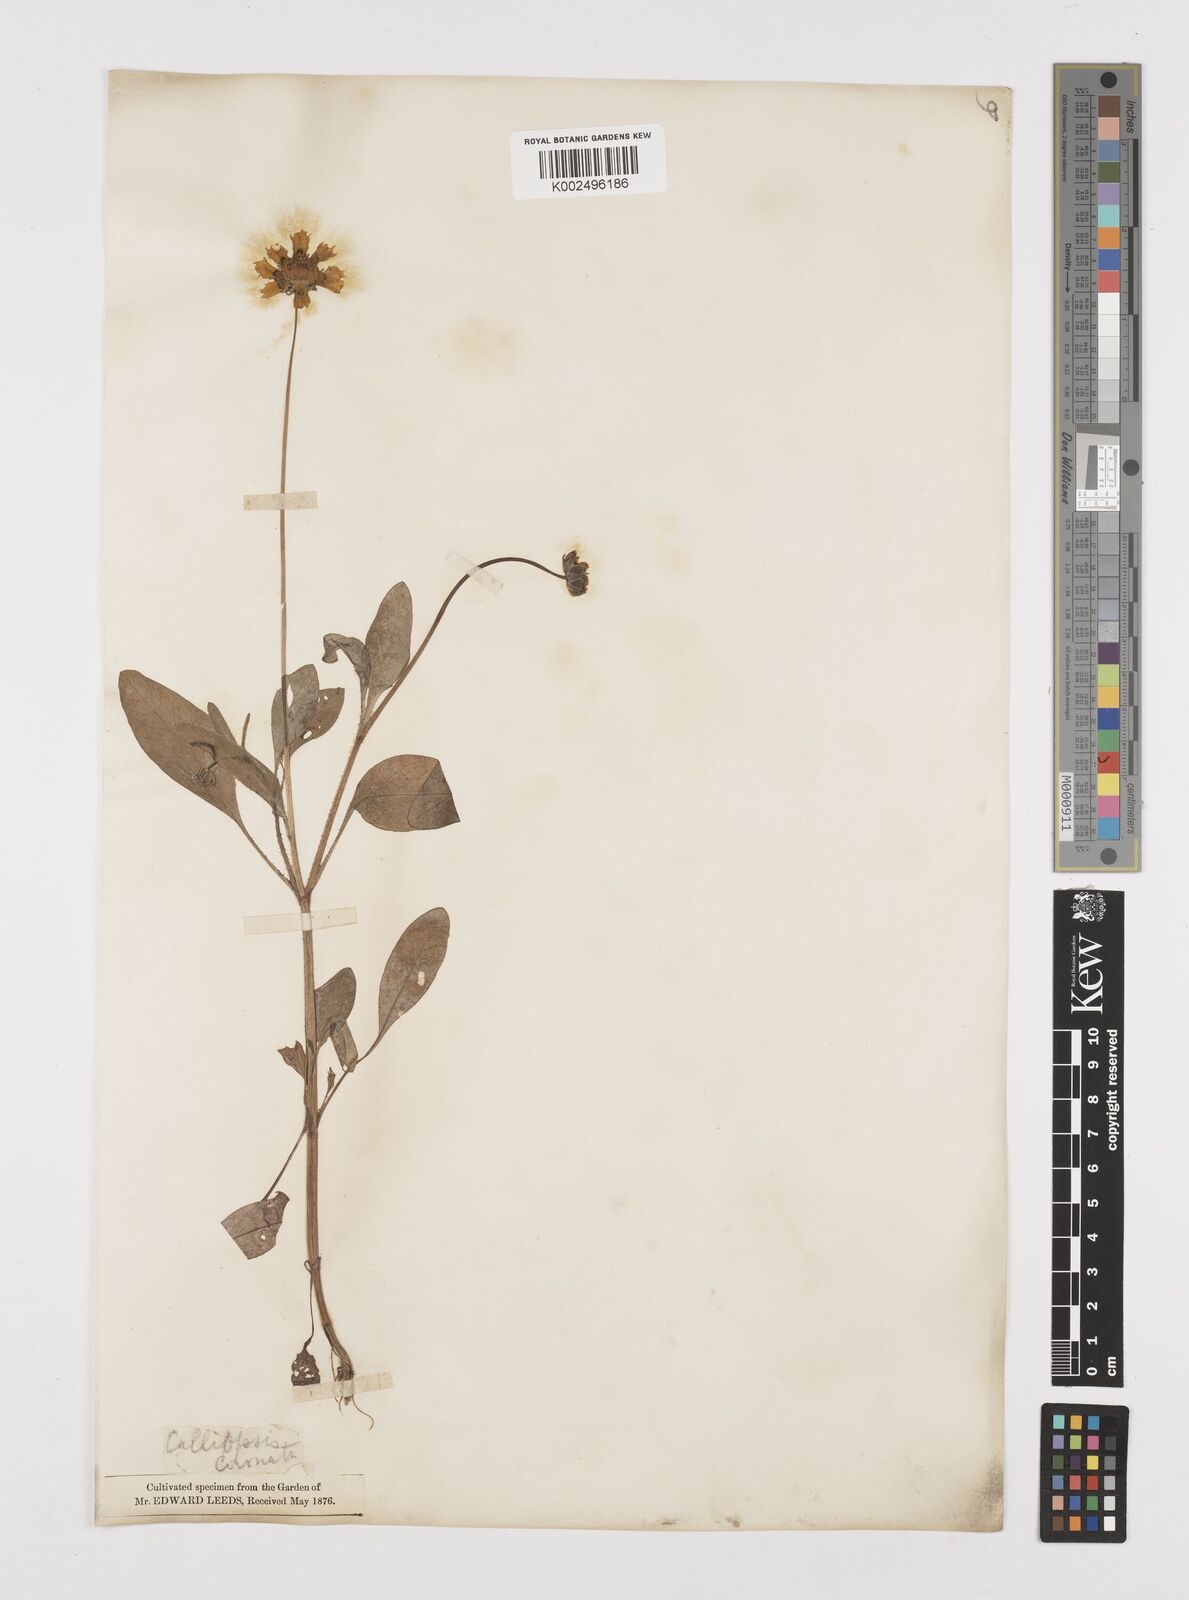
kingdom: Plantae
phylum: Tracheophyta
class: Magnoliopsida
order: Asterales
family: Asteraceae
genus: Coreopsis
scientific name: Coreopsis nuecensis
